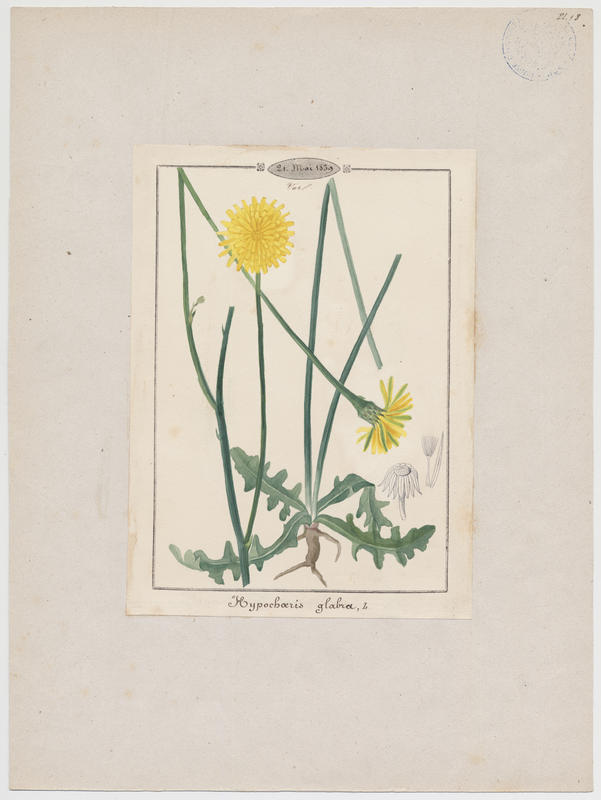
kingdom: Plantae
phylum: Tracheophyta
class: Magnoliopsida
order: Asterales
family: Asteraceae
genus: Hypochoeris
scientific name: Hypochoeris glabra
